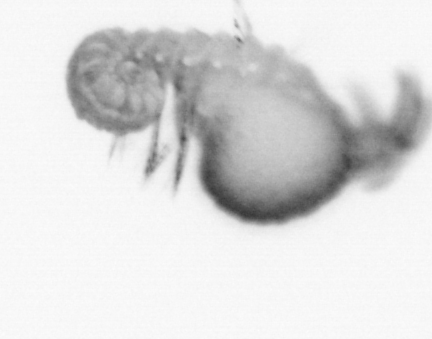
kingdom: Animalia
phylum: Annelida
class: Polychaeta
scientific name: Polychaeta
